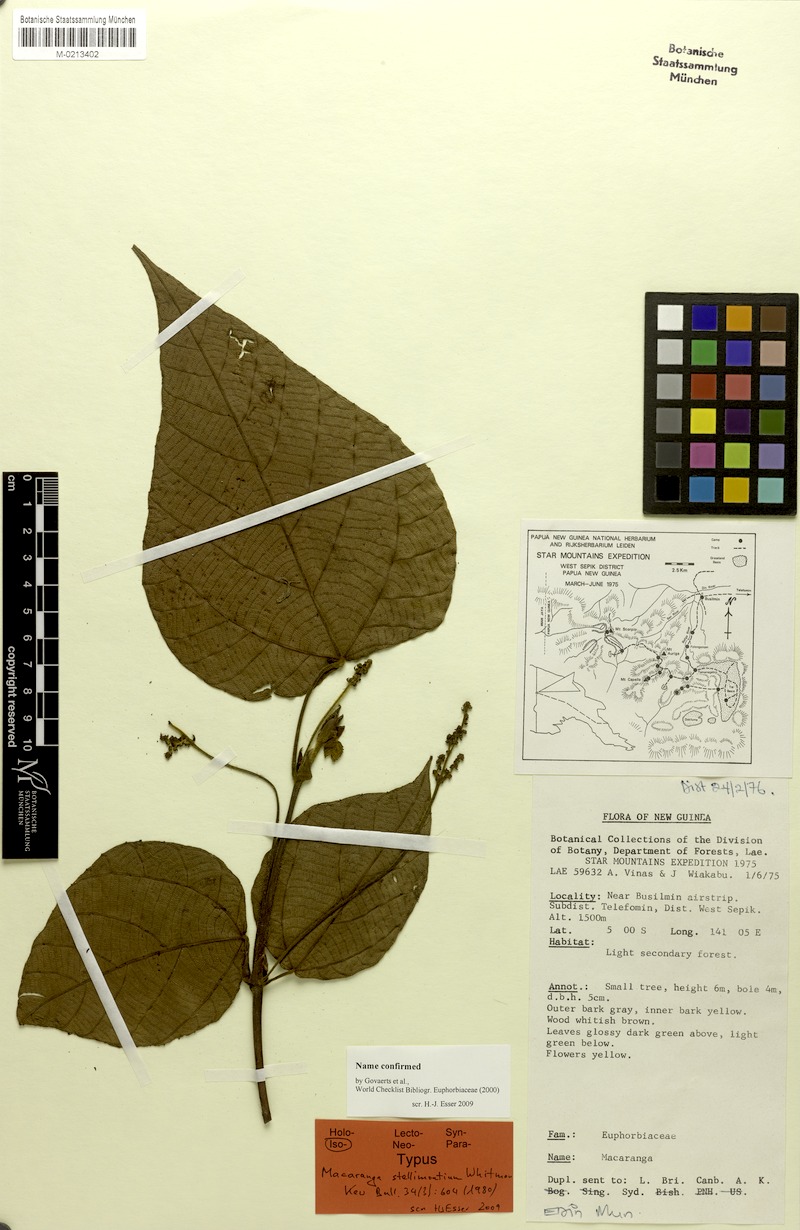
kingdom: Plantae
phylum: Tracheophyta
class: Magnoliopsida
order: Malpighiales
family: Euphorbiaceae
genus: Macaranga
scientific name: Macaranga stellimontium
